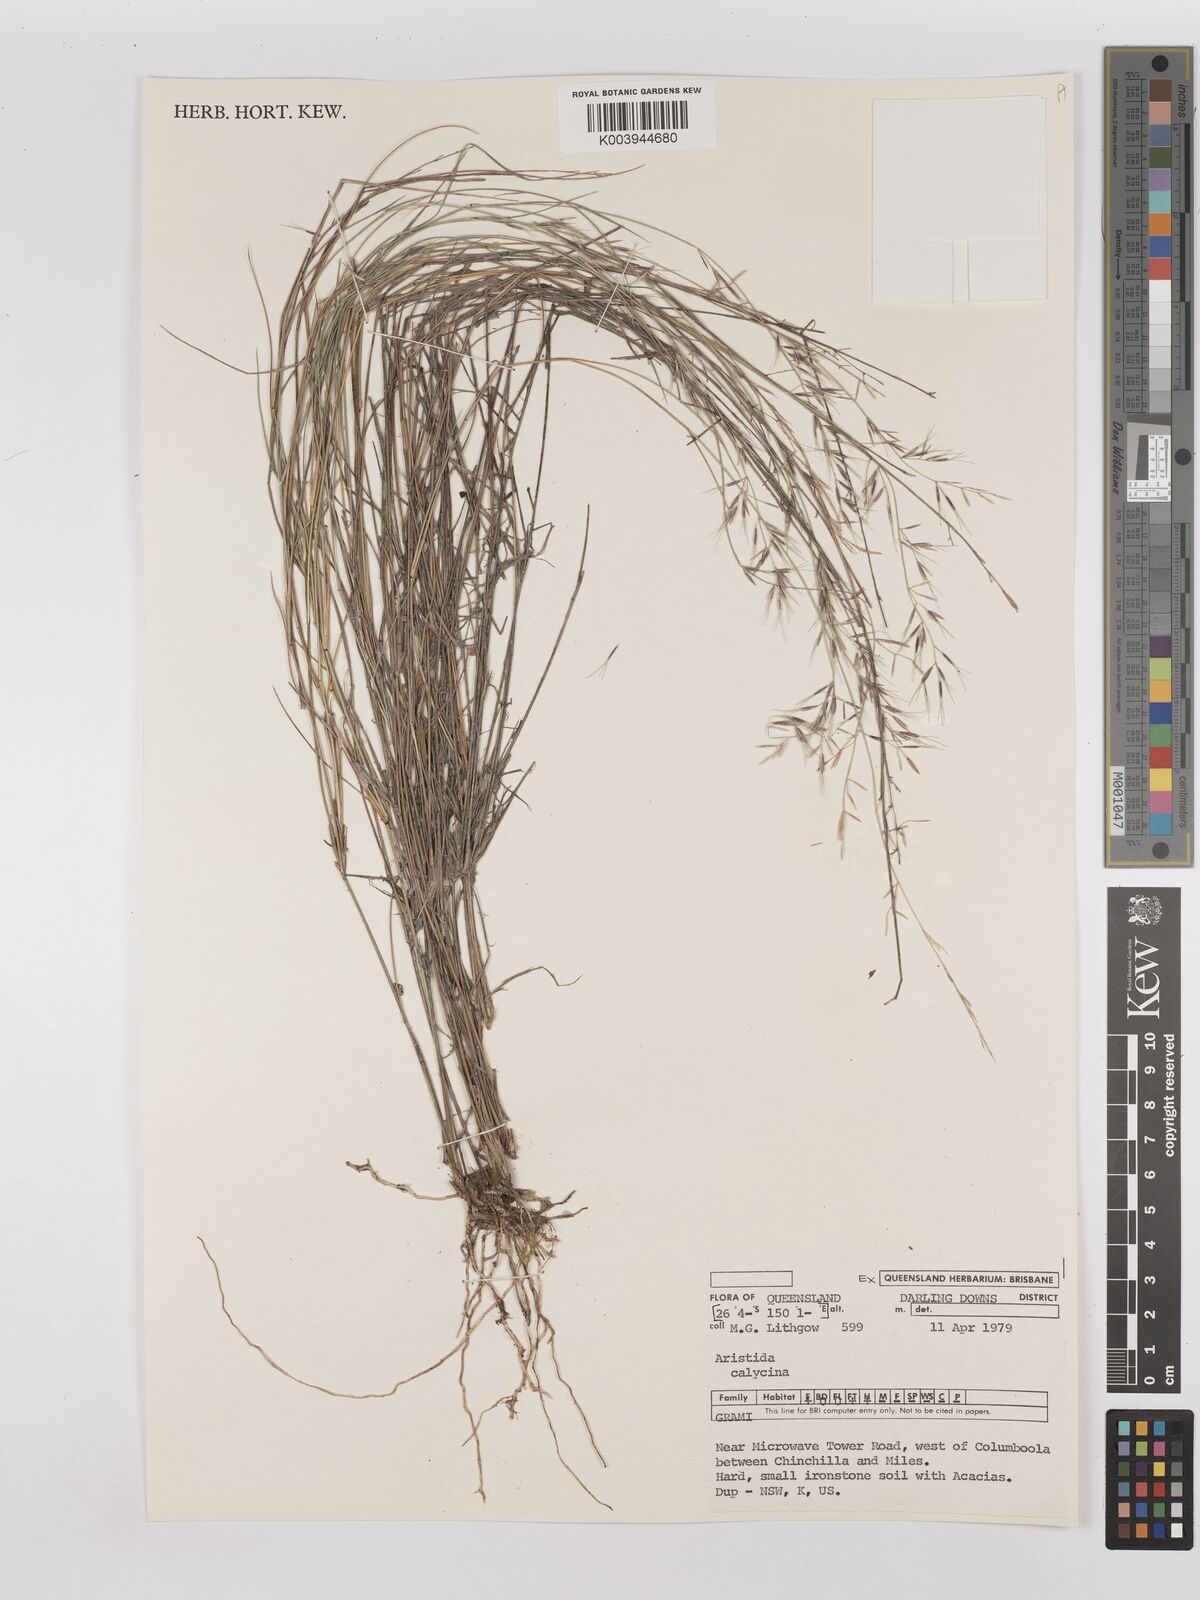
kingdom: Plantae
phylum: Tracheophyta
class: Liliopsida
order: Poales
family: Poaceae
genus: Aristida
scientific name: Aristida calycina
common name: Dark wire grass
